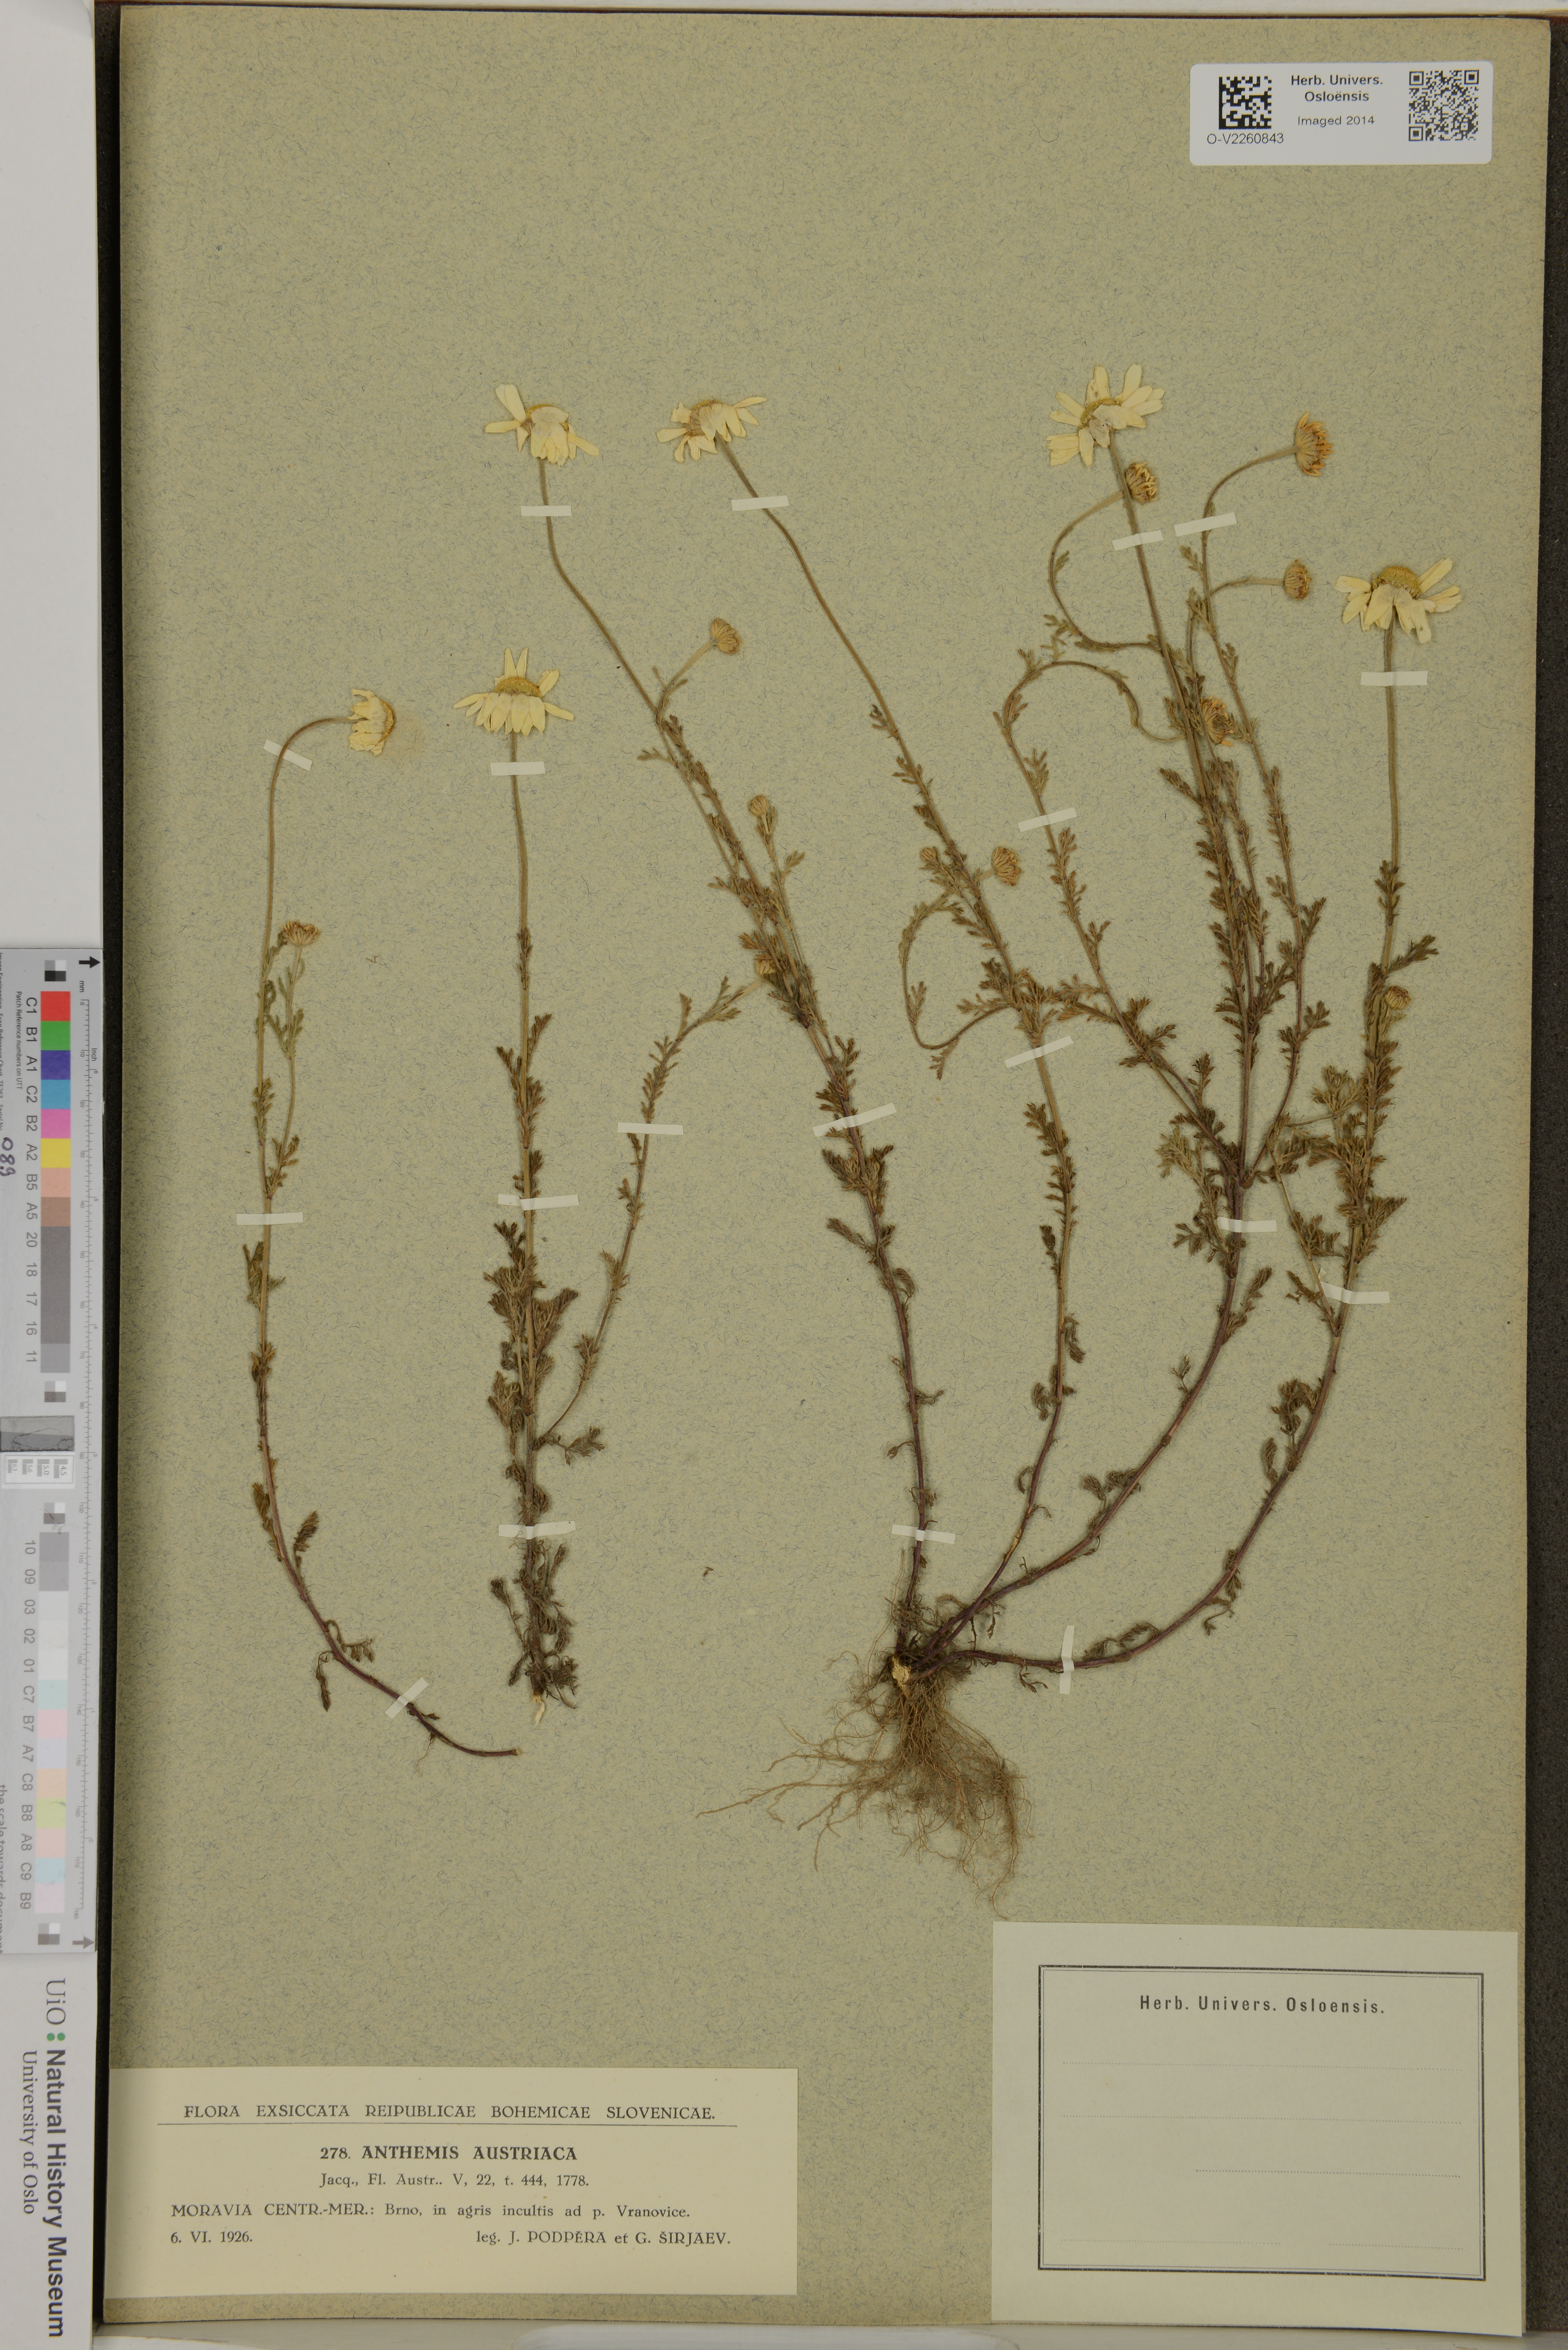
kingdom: Plantae
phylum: Tracheophyta
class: Magnoliopsida
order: Asterales
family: Asteraceae
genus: Cota
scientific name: Cota austriaca
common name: Austrian chamomile
